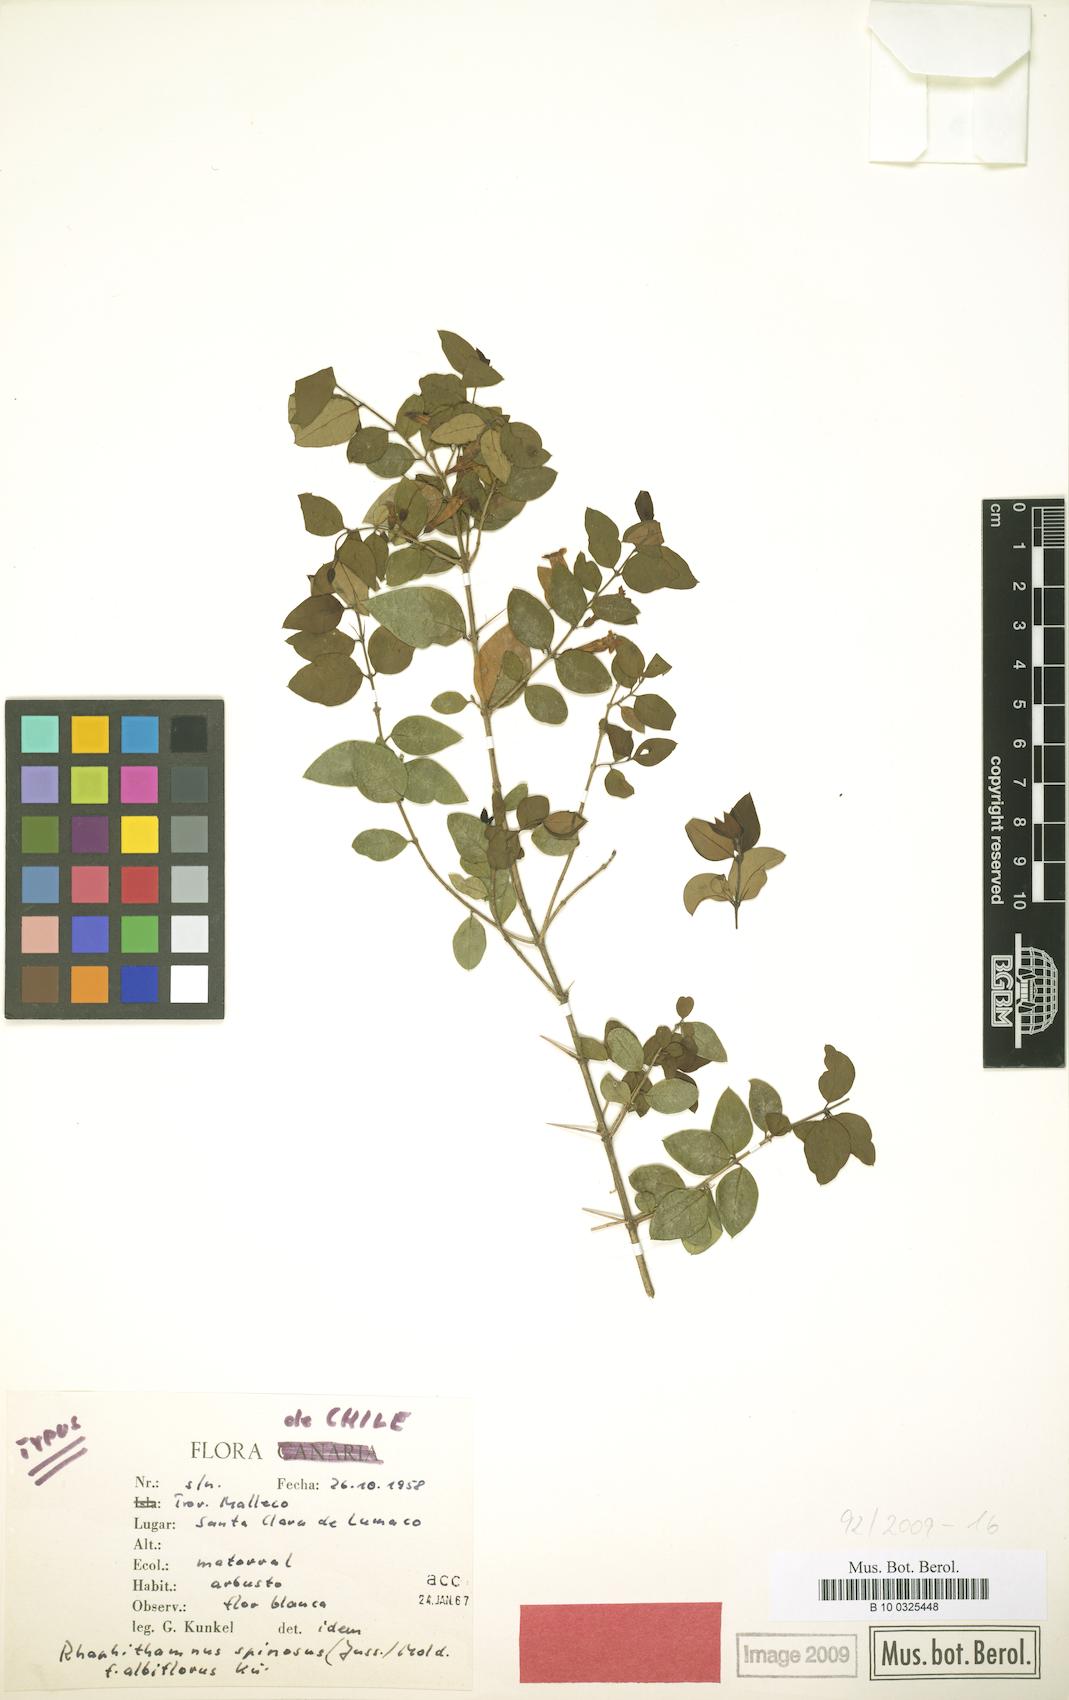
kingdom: Plantae
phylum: Tracheophyta
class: Magnoliopsida
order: Lamiales
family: Verbenaceae
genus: Rhaphithamnus
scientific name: Rhaphithamnus spinosus
